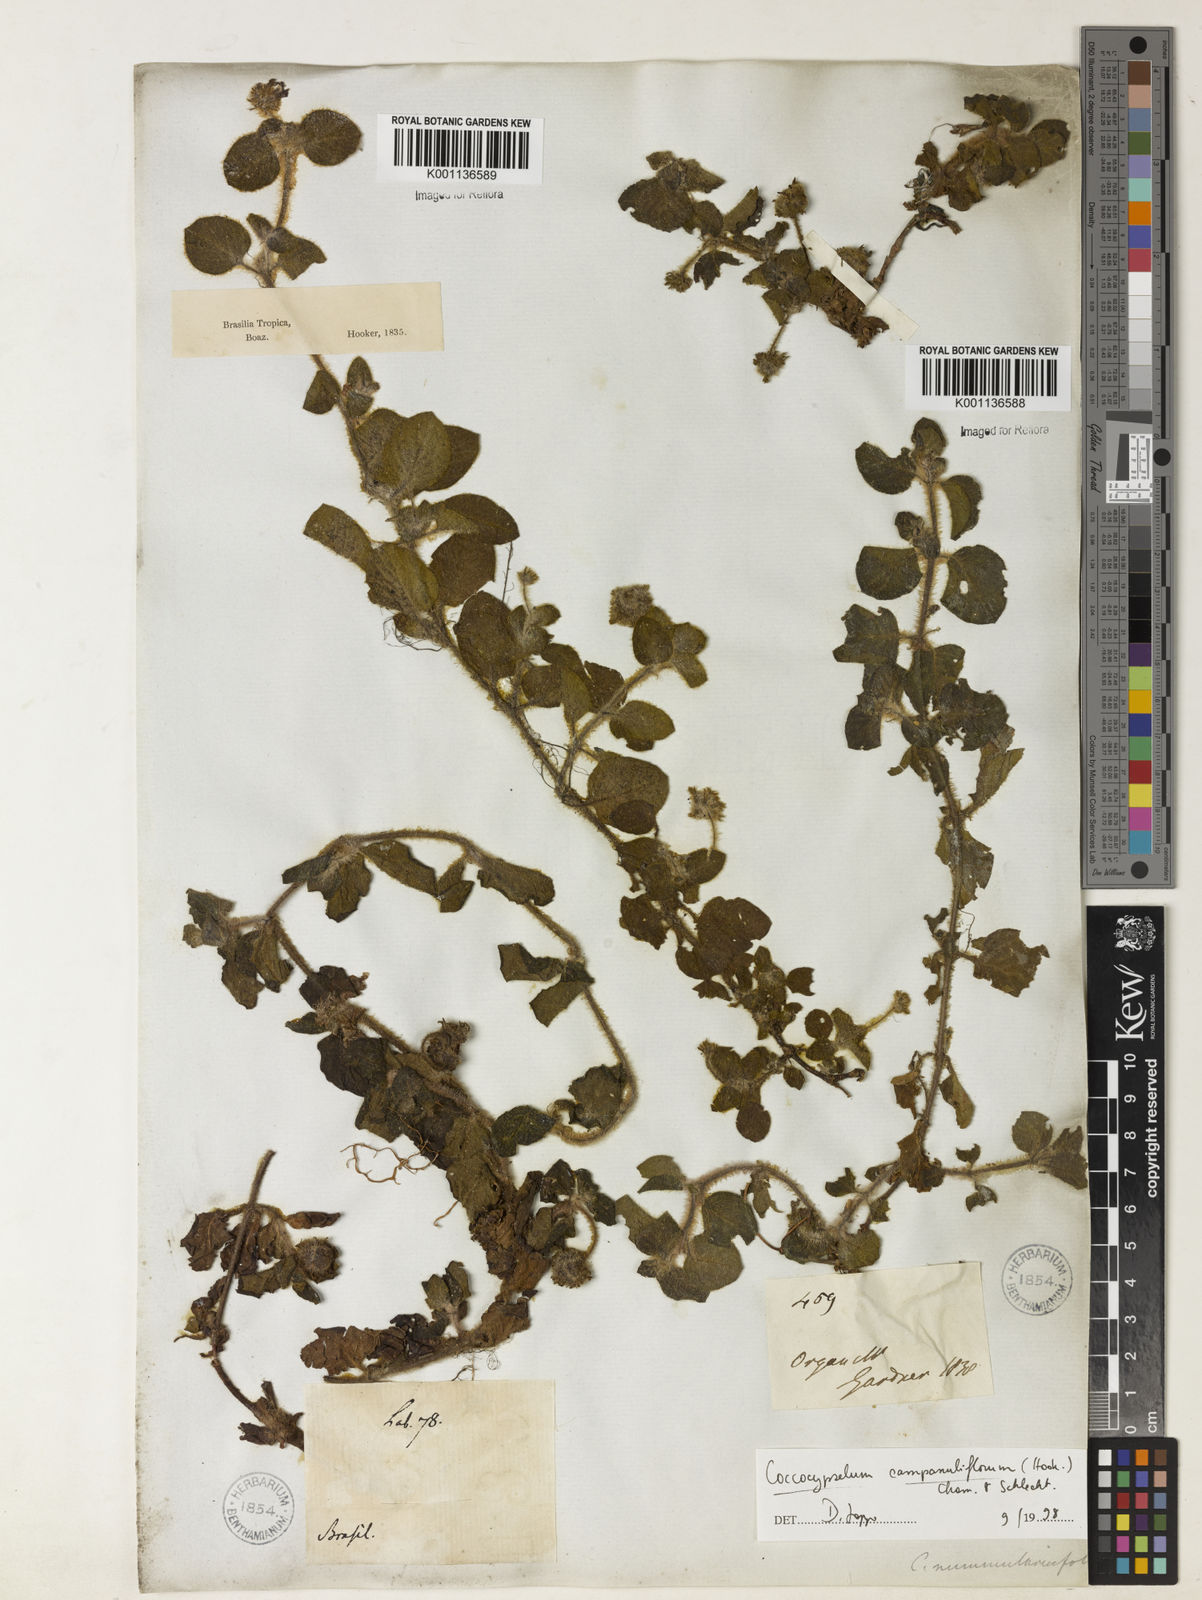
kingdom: Plantae
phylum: Tracheophyta
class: Magnoliopsida
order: Gentianales
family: Rubiaceae
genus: Coccocypselum
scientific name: Coccocypselum capitatum
